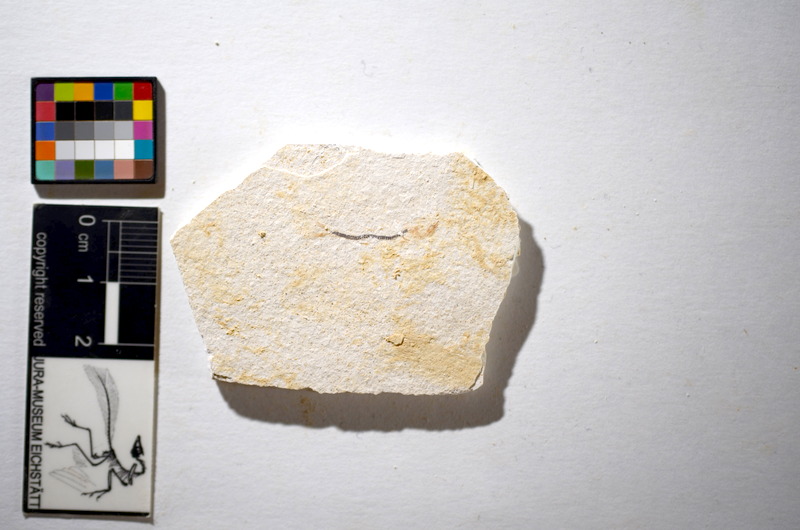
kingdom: Animalia
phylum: Chordata
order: Salmoniformes
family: Orthogonikleithridae
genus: Orthogonikleithrus
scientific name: Orthogonikleithrus hoelli
